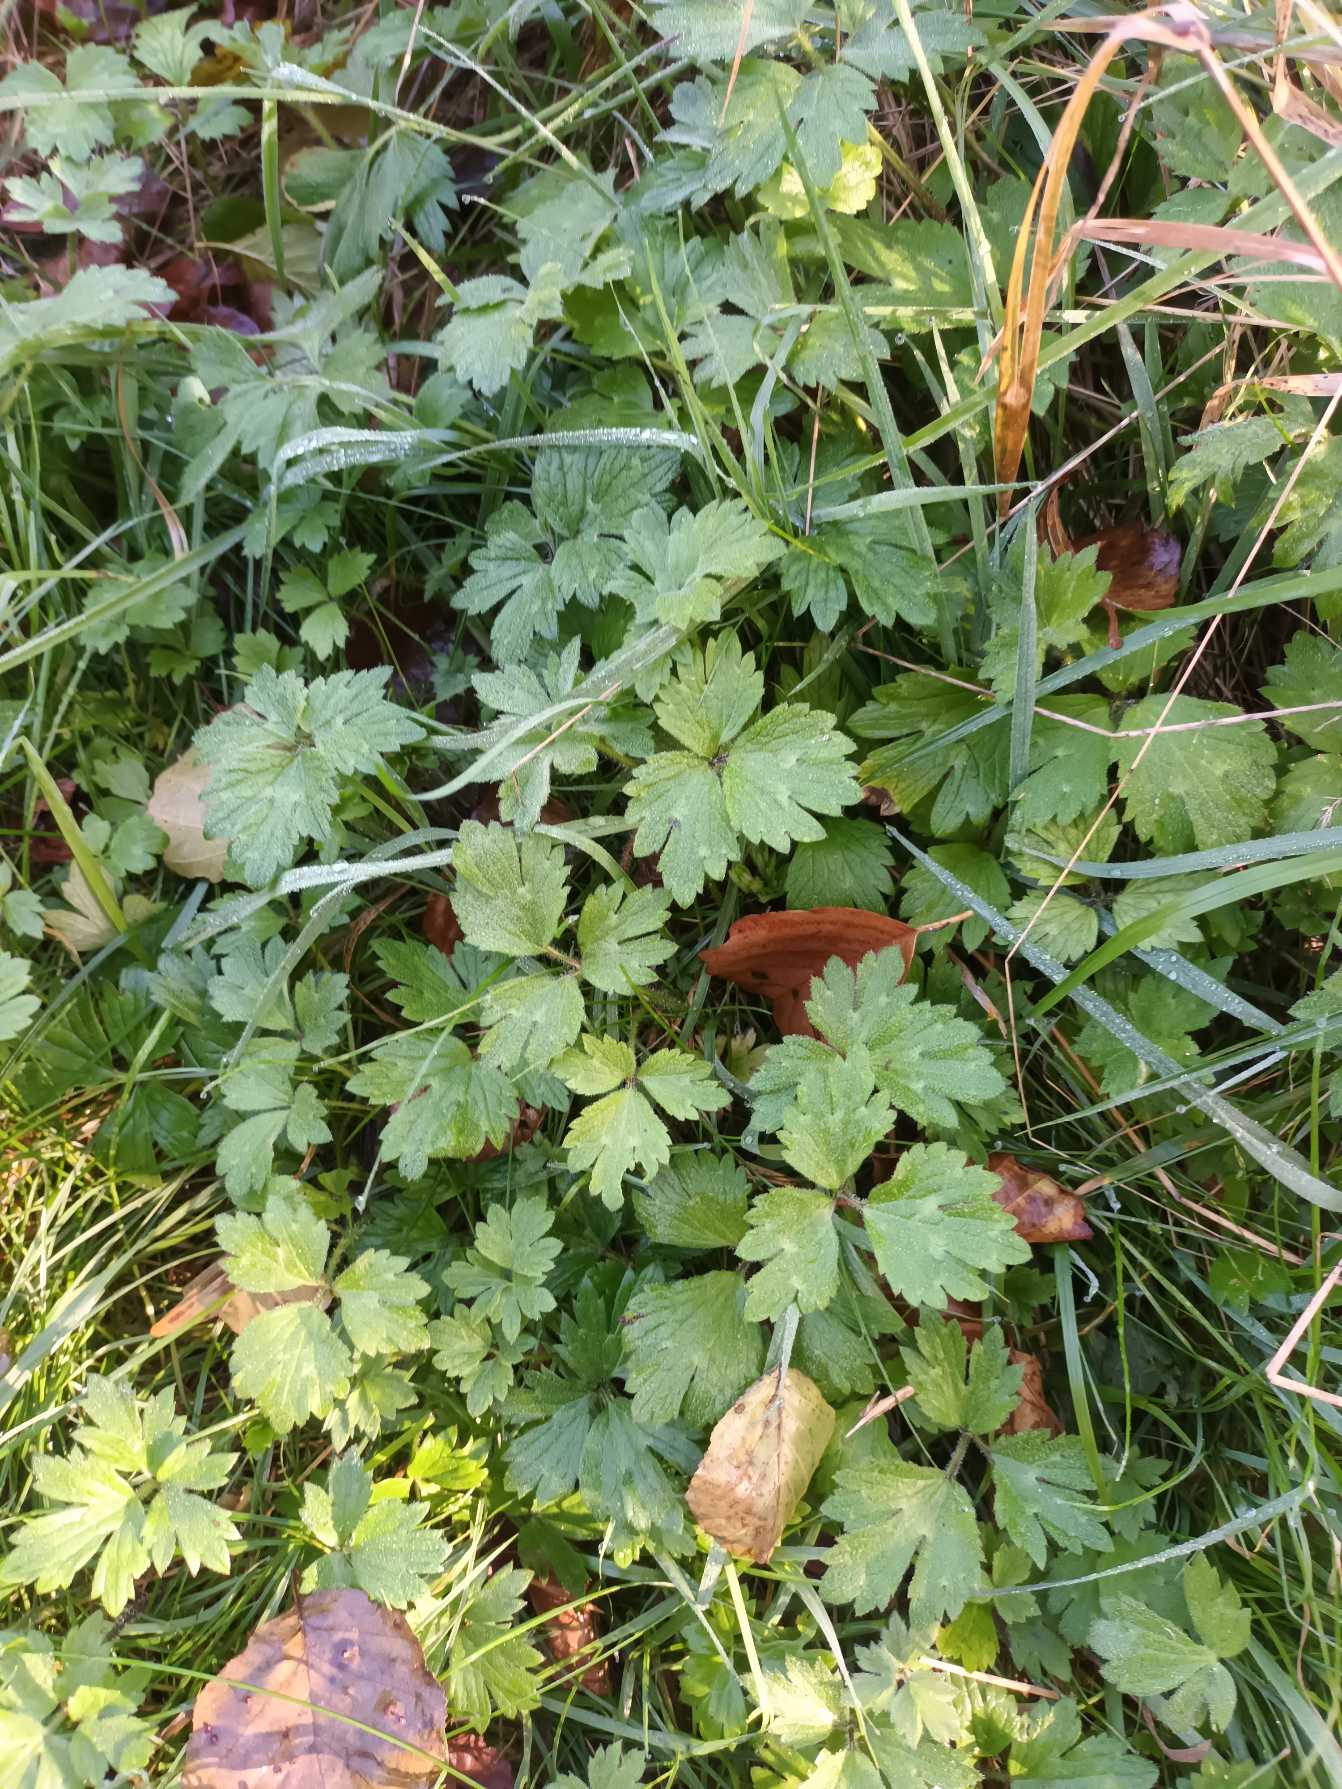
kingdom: Plantae
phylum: Tracheophyta
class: Magnoliopsida
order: Ranunculales
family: Ranunculaceae
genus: Ranunculus
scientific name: Ranunculus repens
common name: Lav ranunkel
